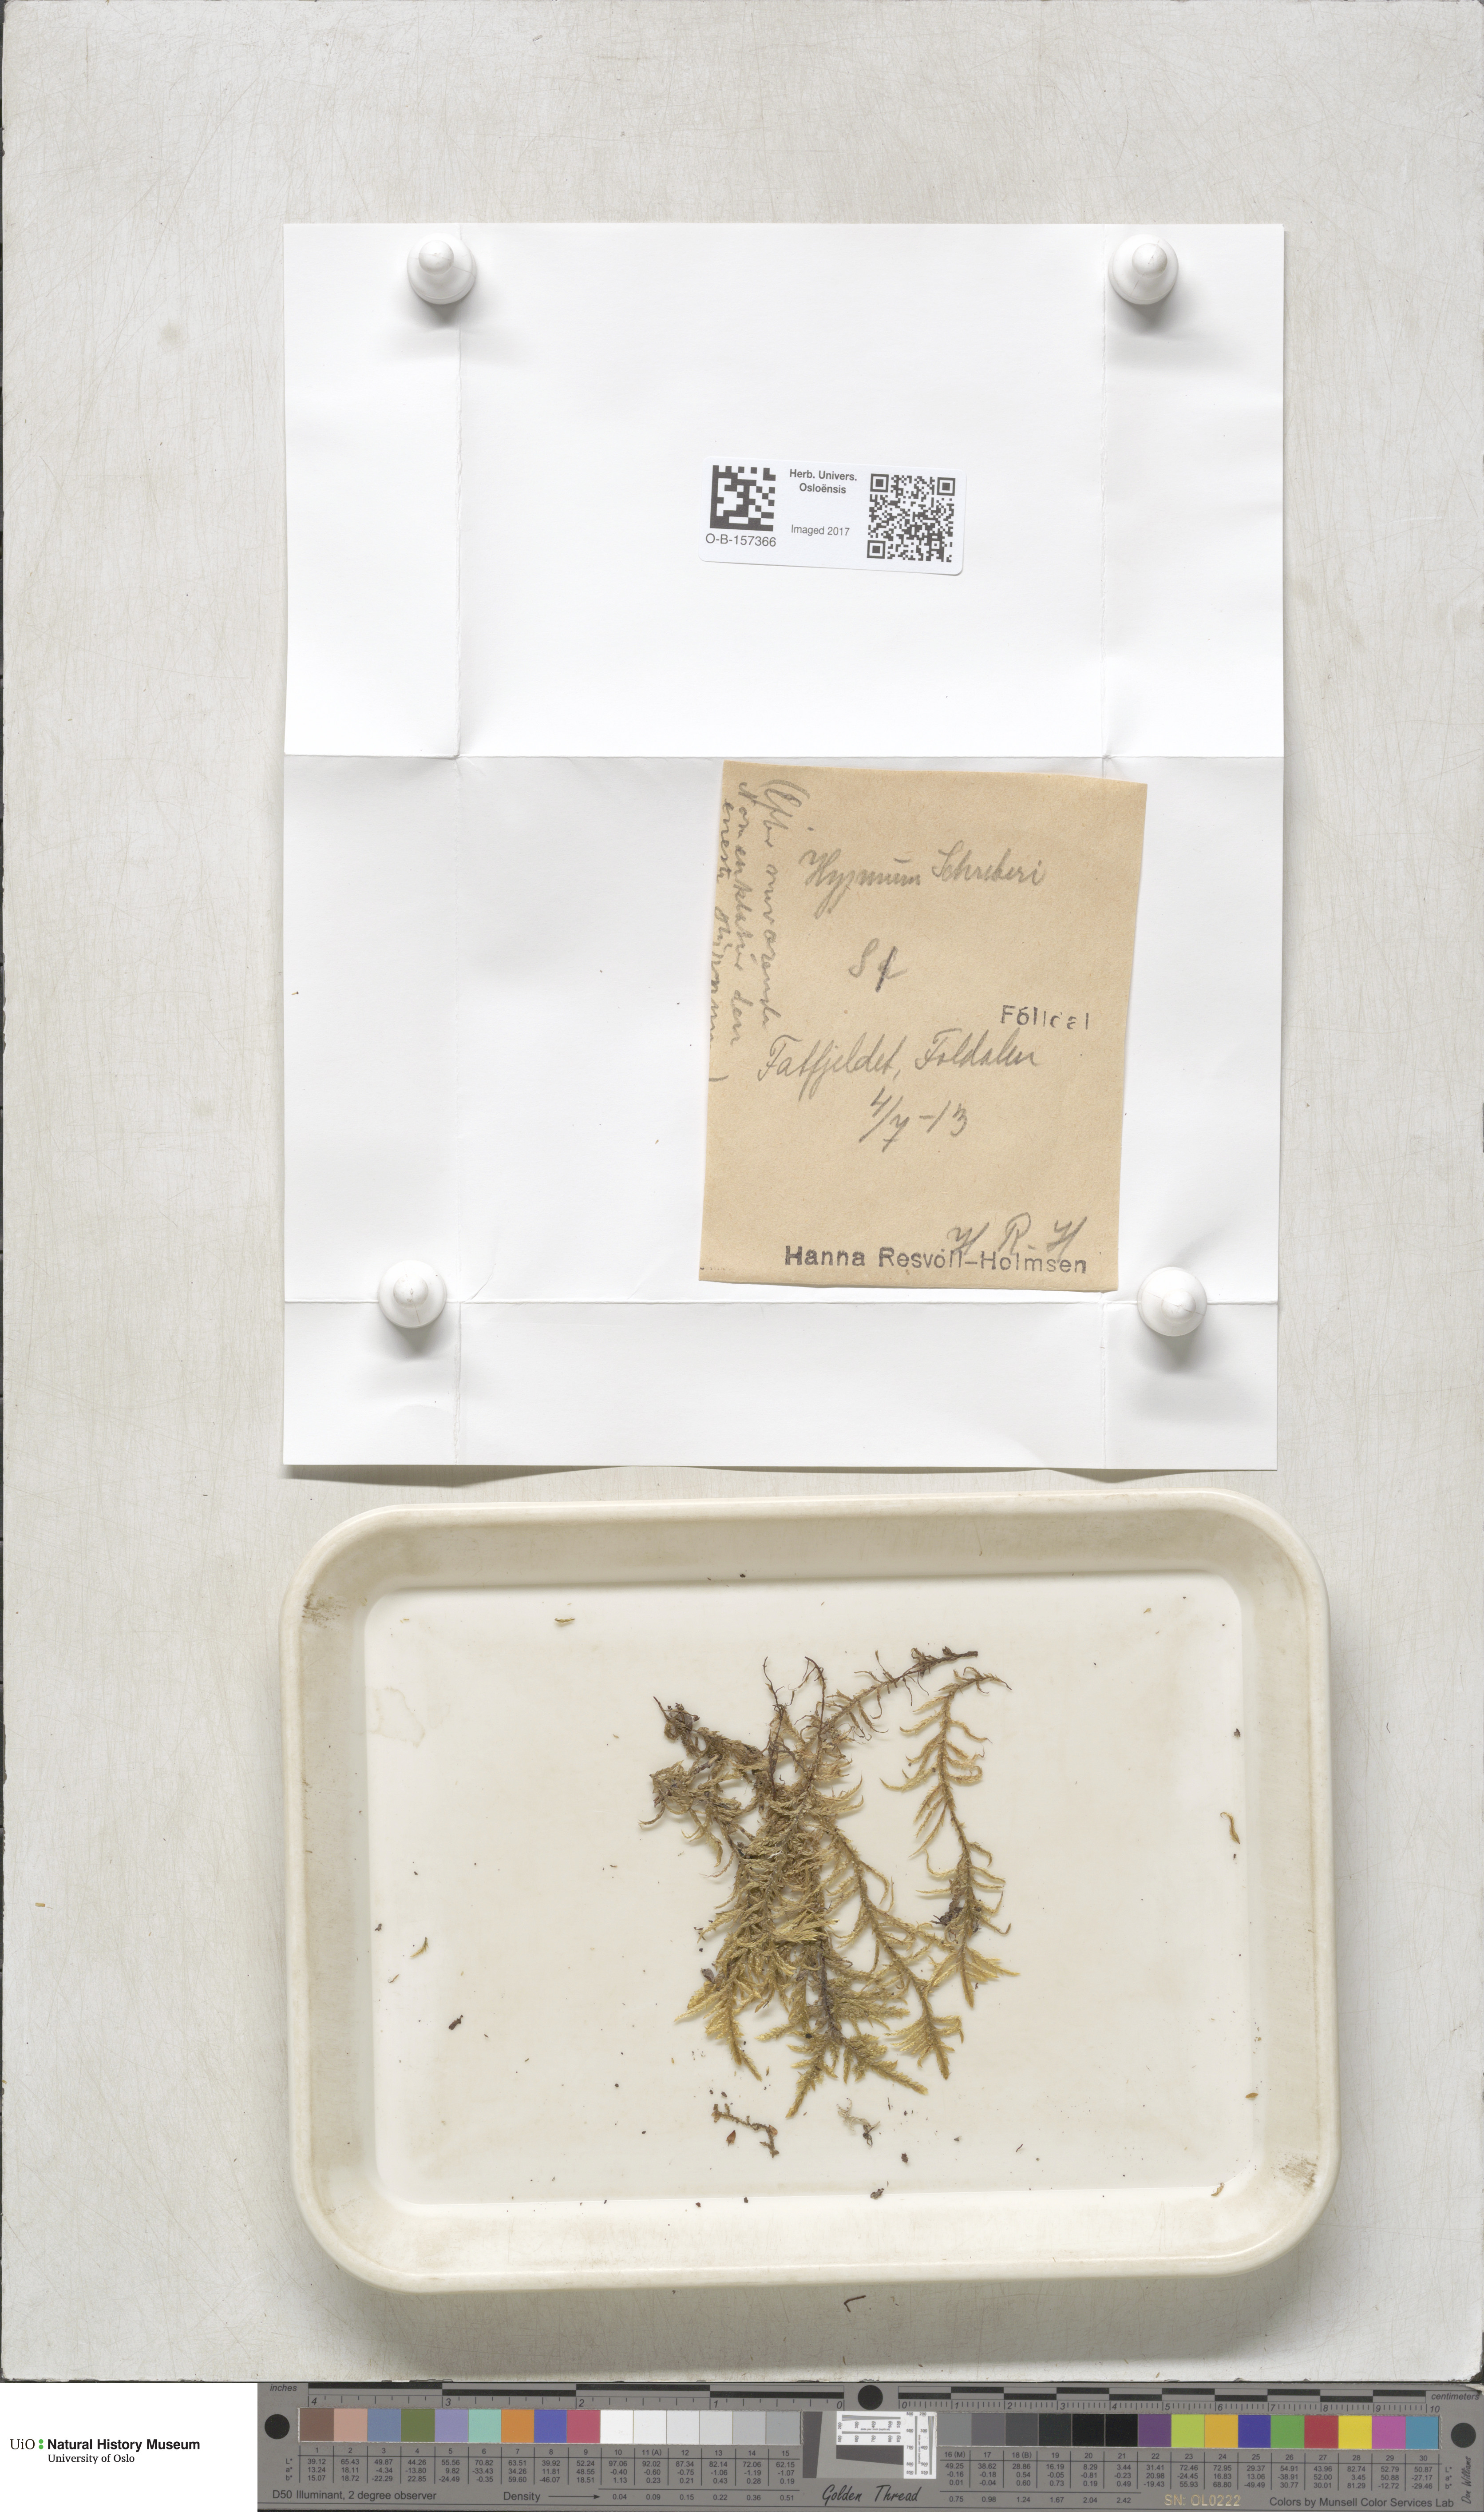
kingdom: Plantae
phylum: Bryophyta
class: Bryopsida
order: Hypnales
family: Hylocomiaceae
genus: Pleurozium
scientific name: Pleurozium schreberi
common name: Red-stemmed feather moss
